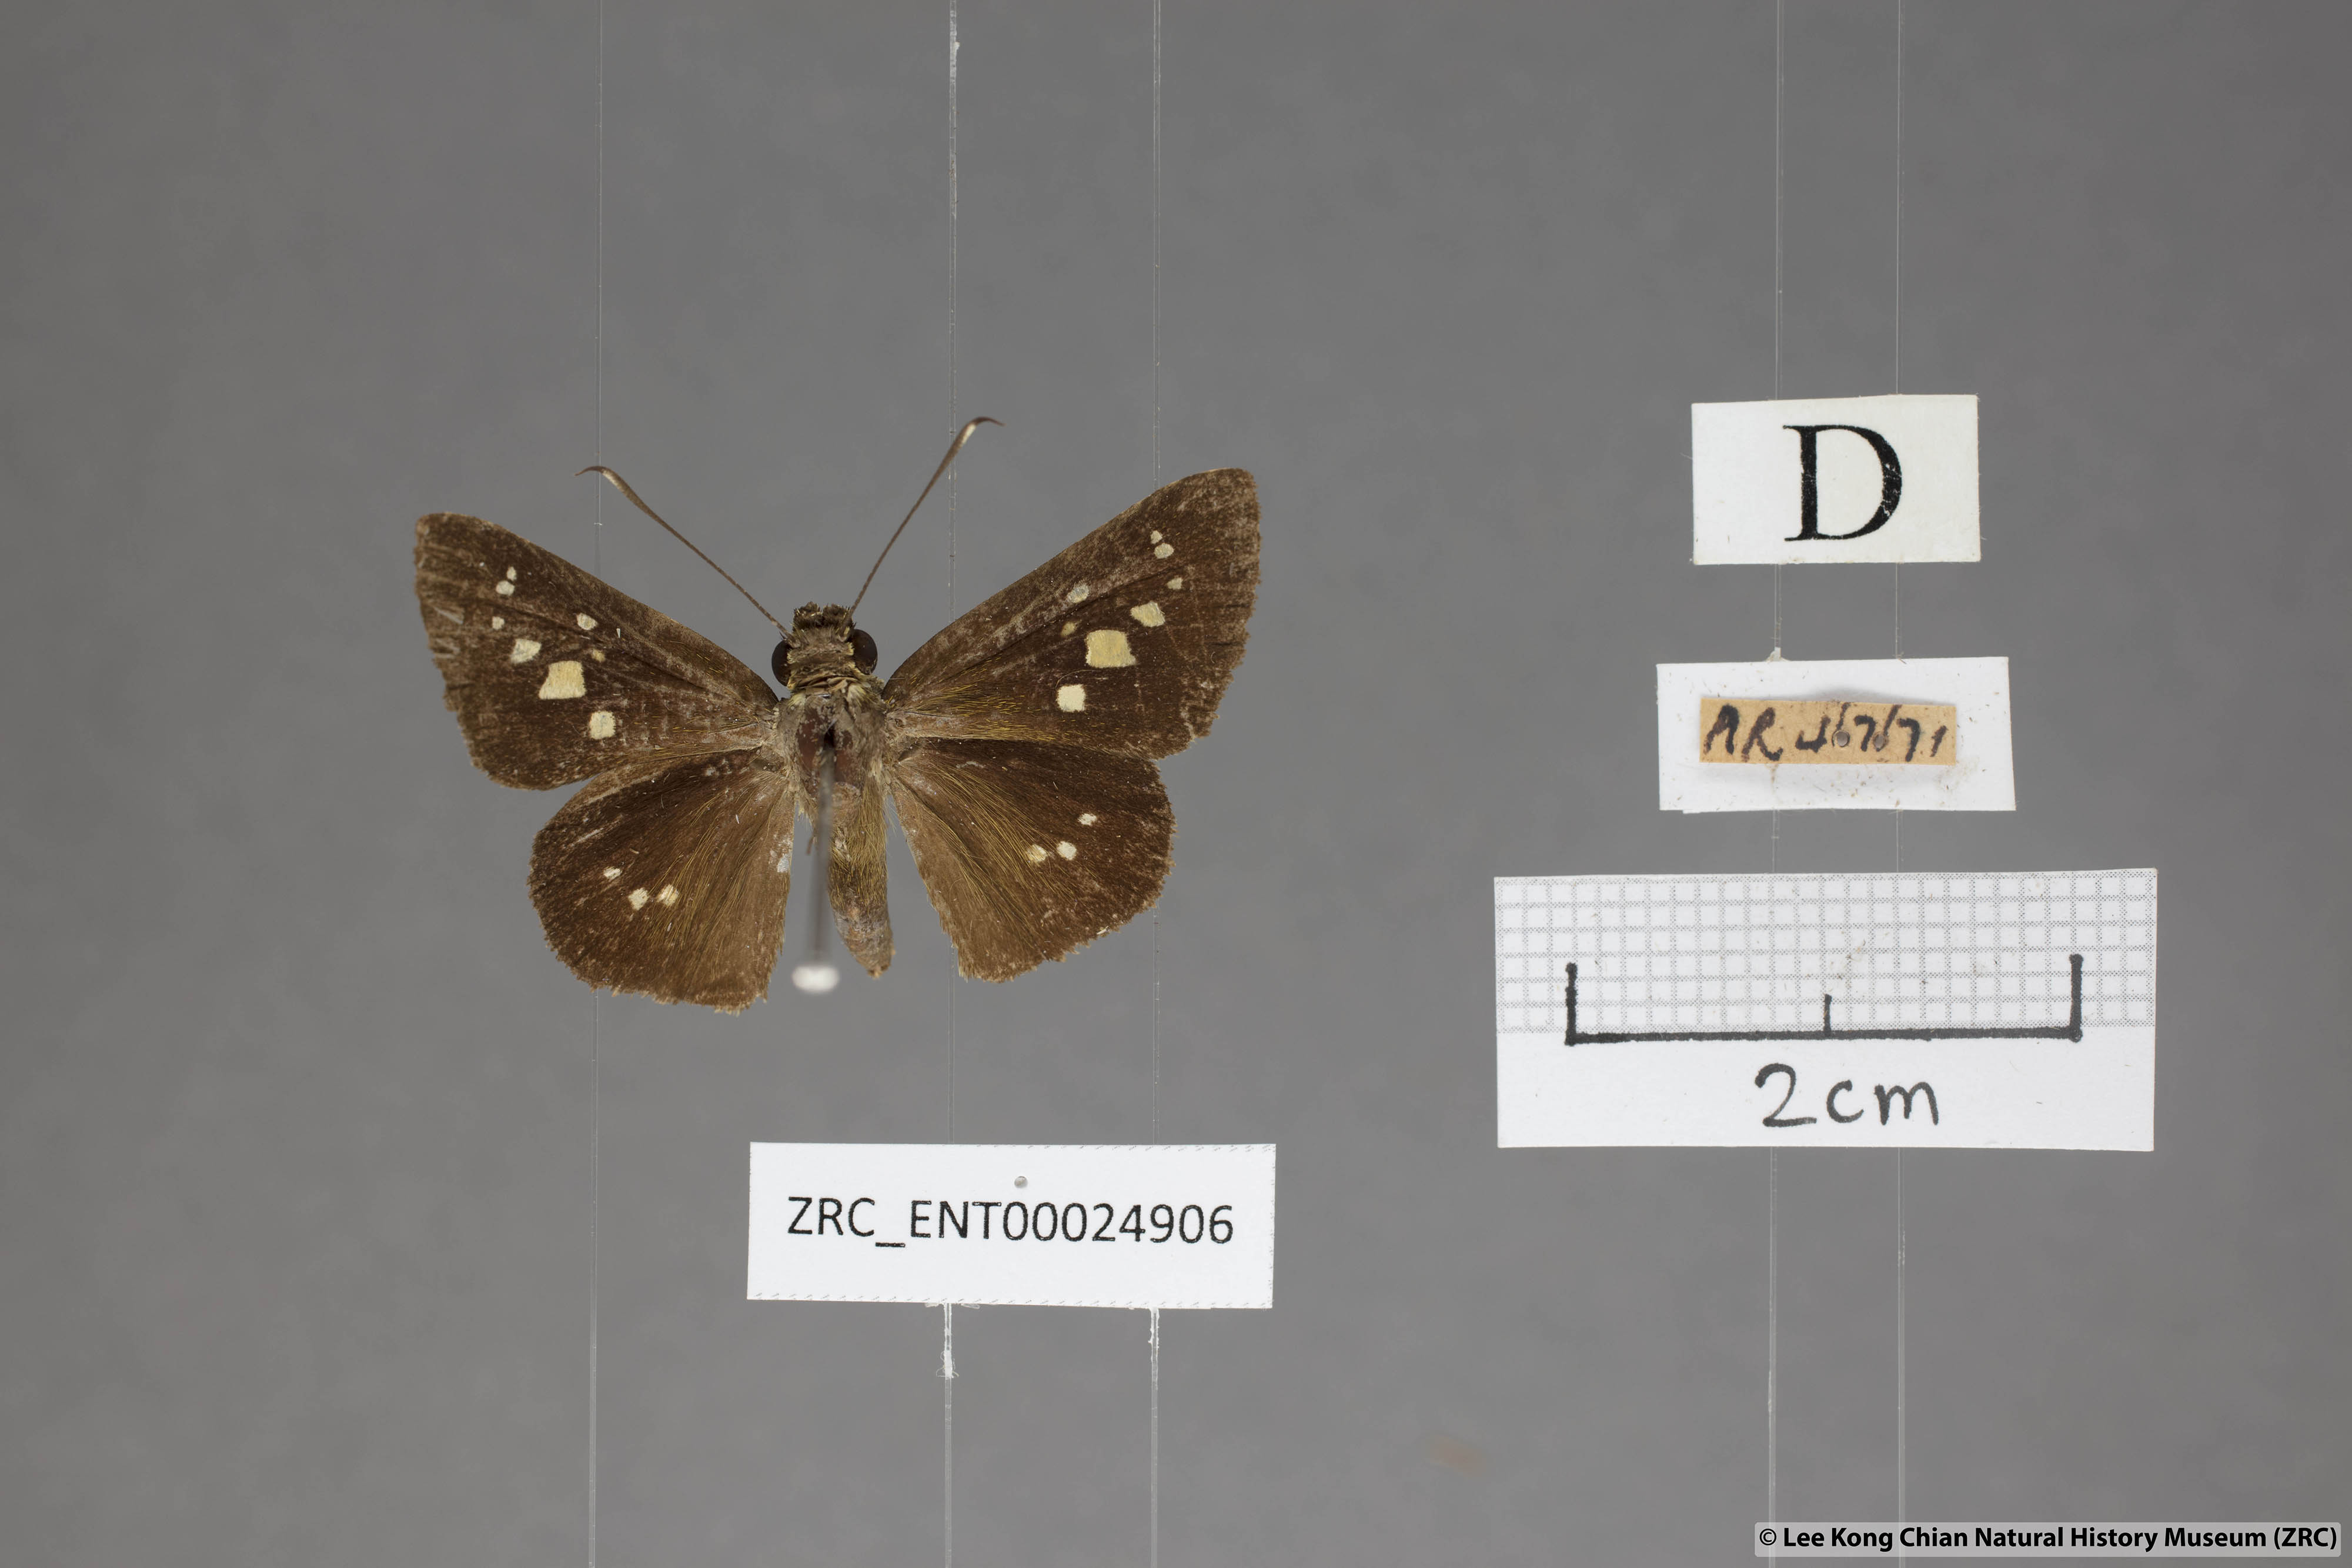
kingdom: Animalia
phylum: Arthropoda
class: Insecta
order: Lepidoptera
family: Hesperiidae
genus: Isma
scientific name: Isma umbrosa
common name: Large long-banded flitter
